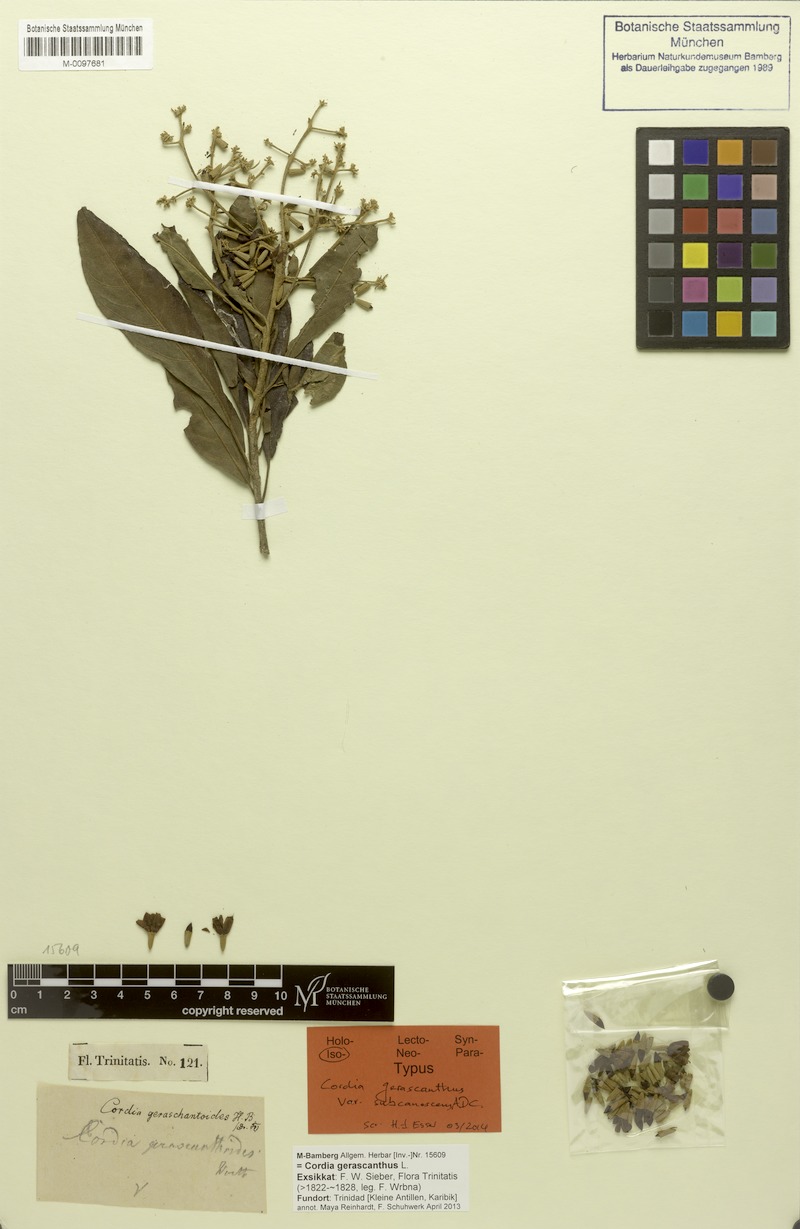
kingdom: Plantae
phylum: Tracheophyta
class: Magnoliopsida
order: Boraginales
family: Cordiaceae
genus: Cordia
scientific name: Cordia gerascanthus
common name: Baria
